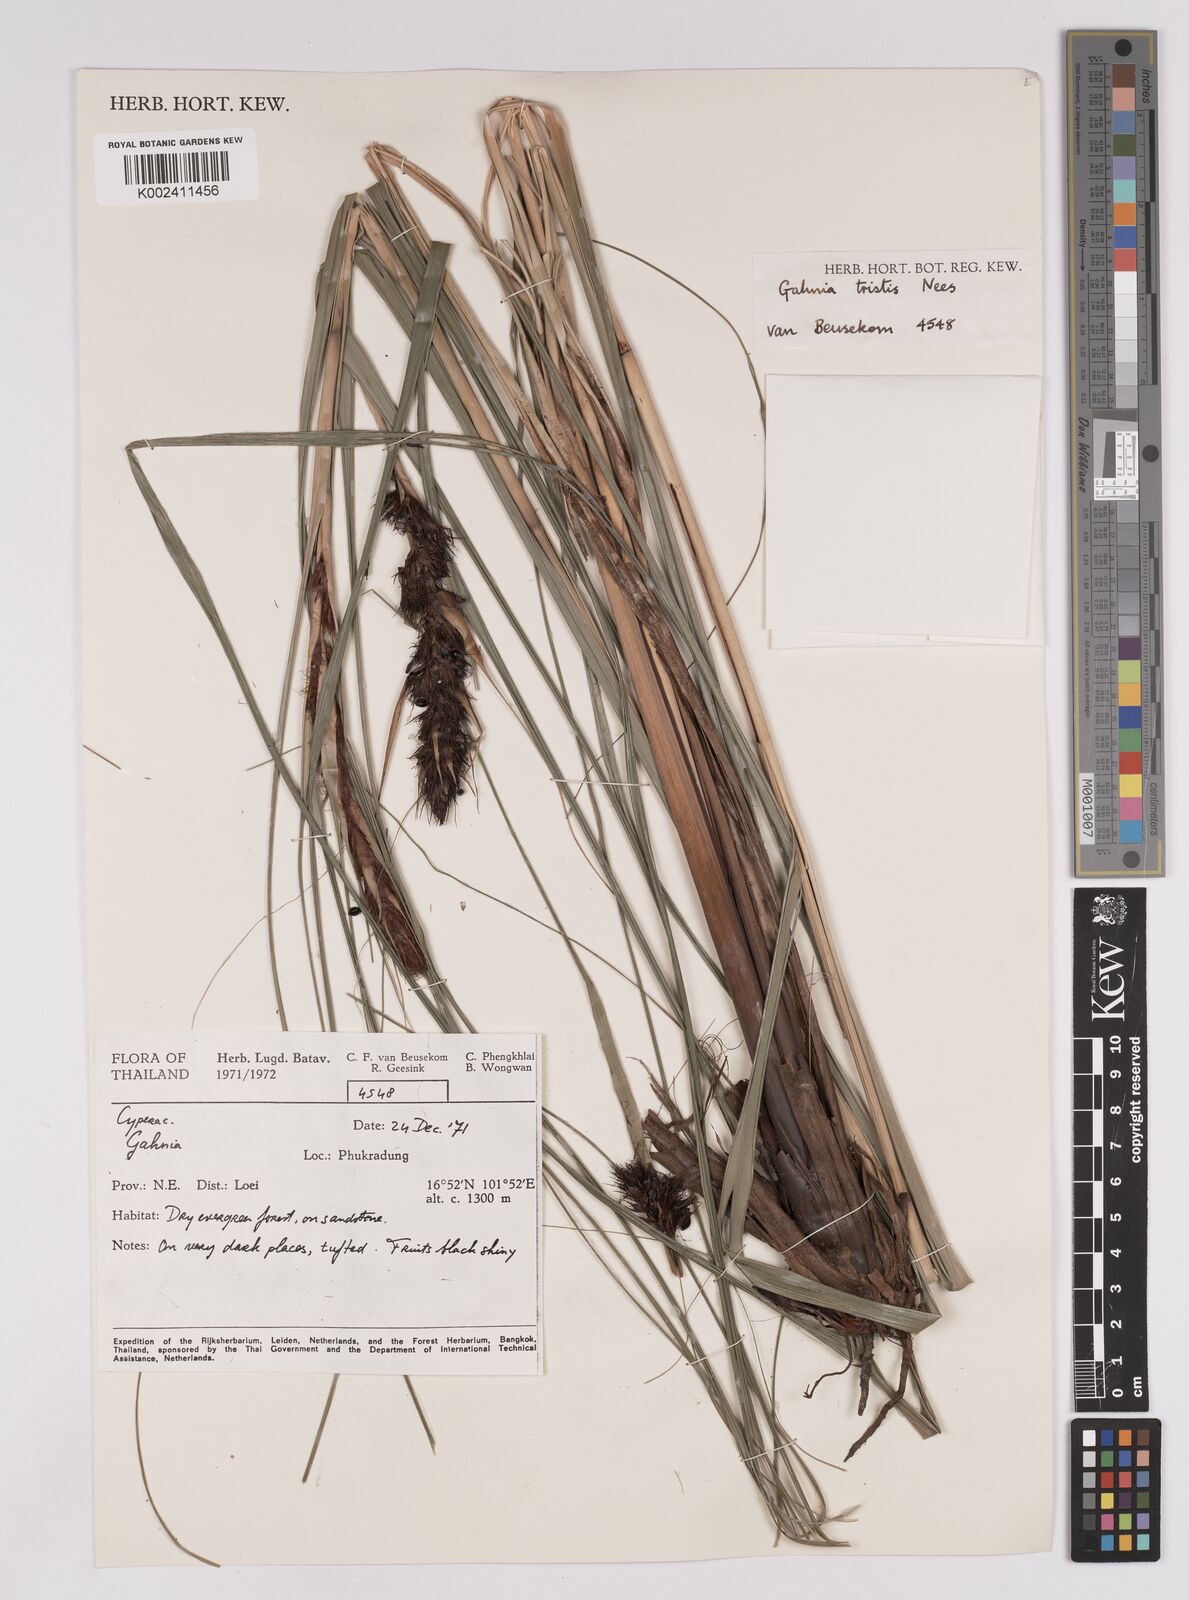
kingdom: Plantae
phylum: Tracheophyta
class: Liliopsida
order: Poales
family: Cyperaceae
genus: Gahnia
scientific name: Gahnia tristis
